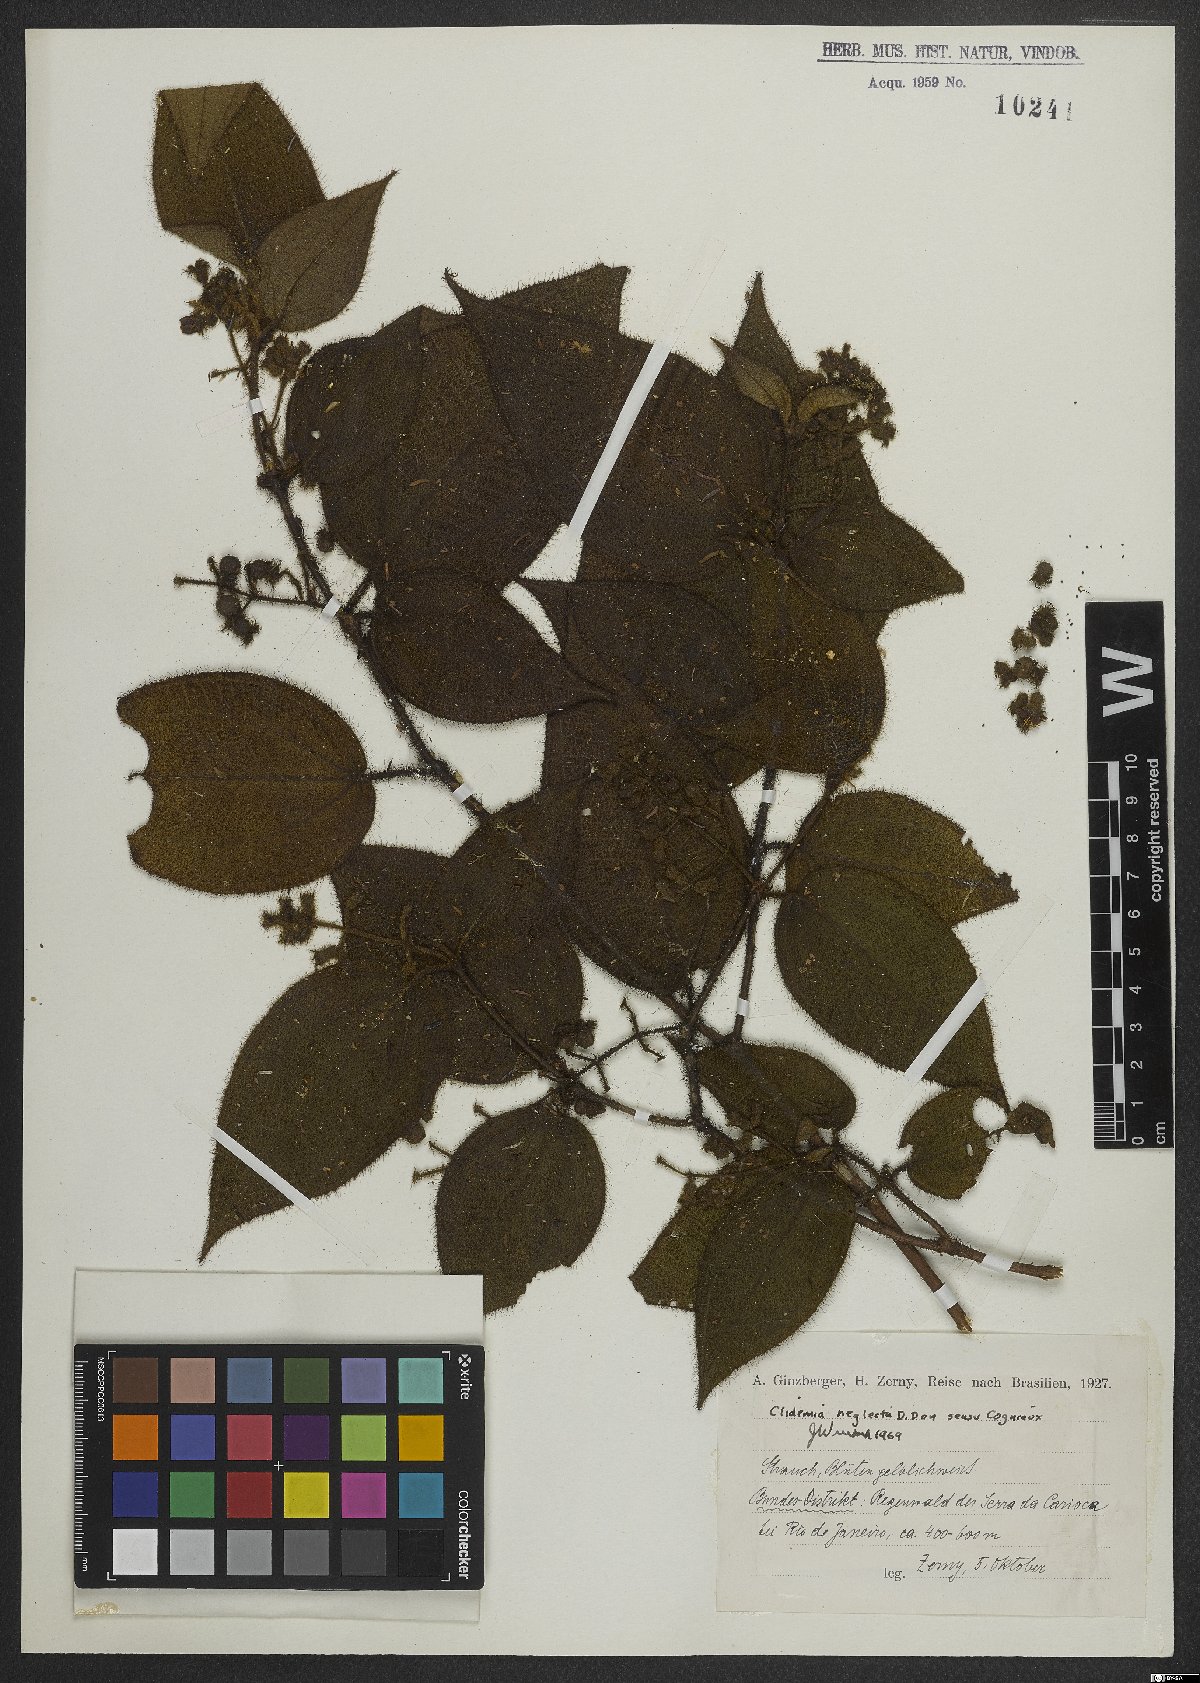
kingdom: Plantae
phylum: Tracheophyta
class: Magnoliopsida
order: Myrtales
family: Melastomataceae
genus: Miconia
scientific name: Miconia dependens
